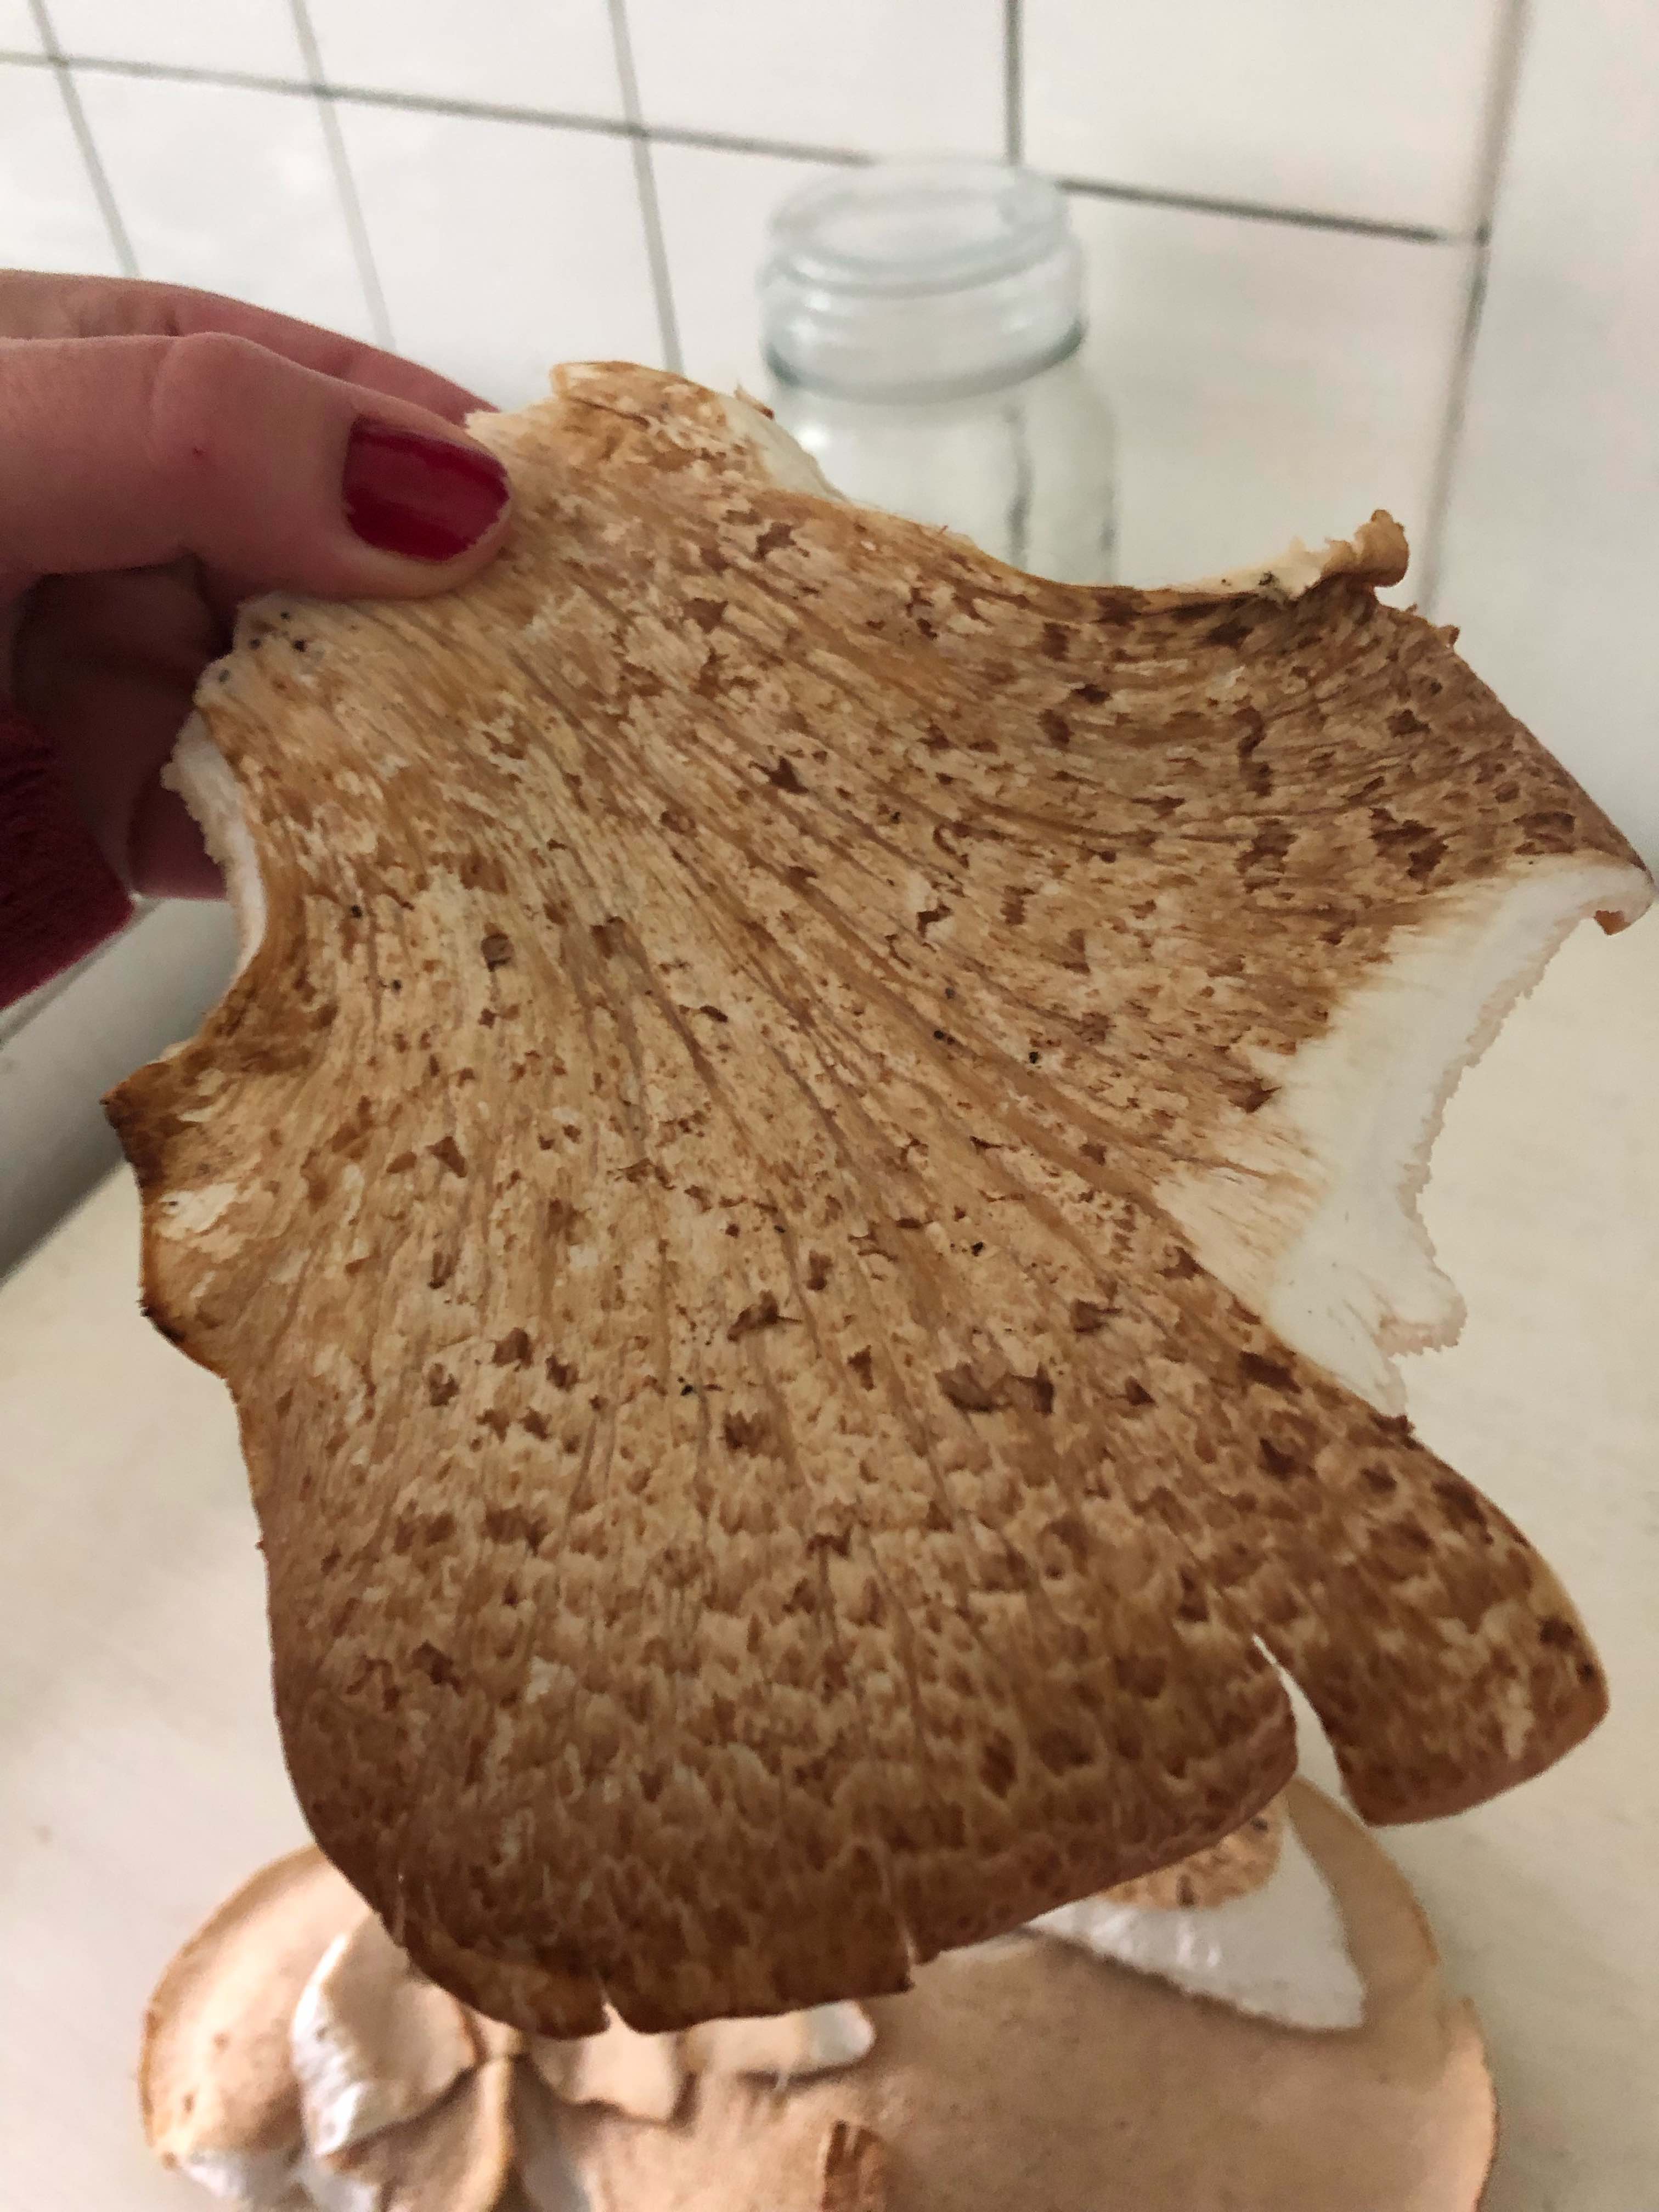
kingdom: Fungi
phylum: Basidiomycota
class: Agaricomycetes
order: Polyporales
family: Polyporaceae
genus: Cerioporus
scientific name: Cerioporus squamosus
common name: skællet stilkporesvamp
